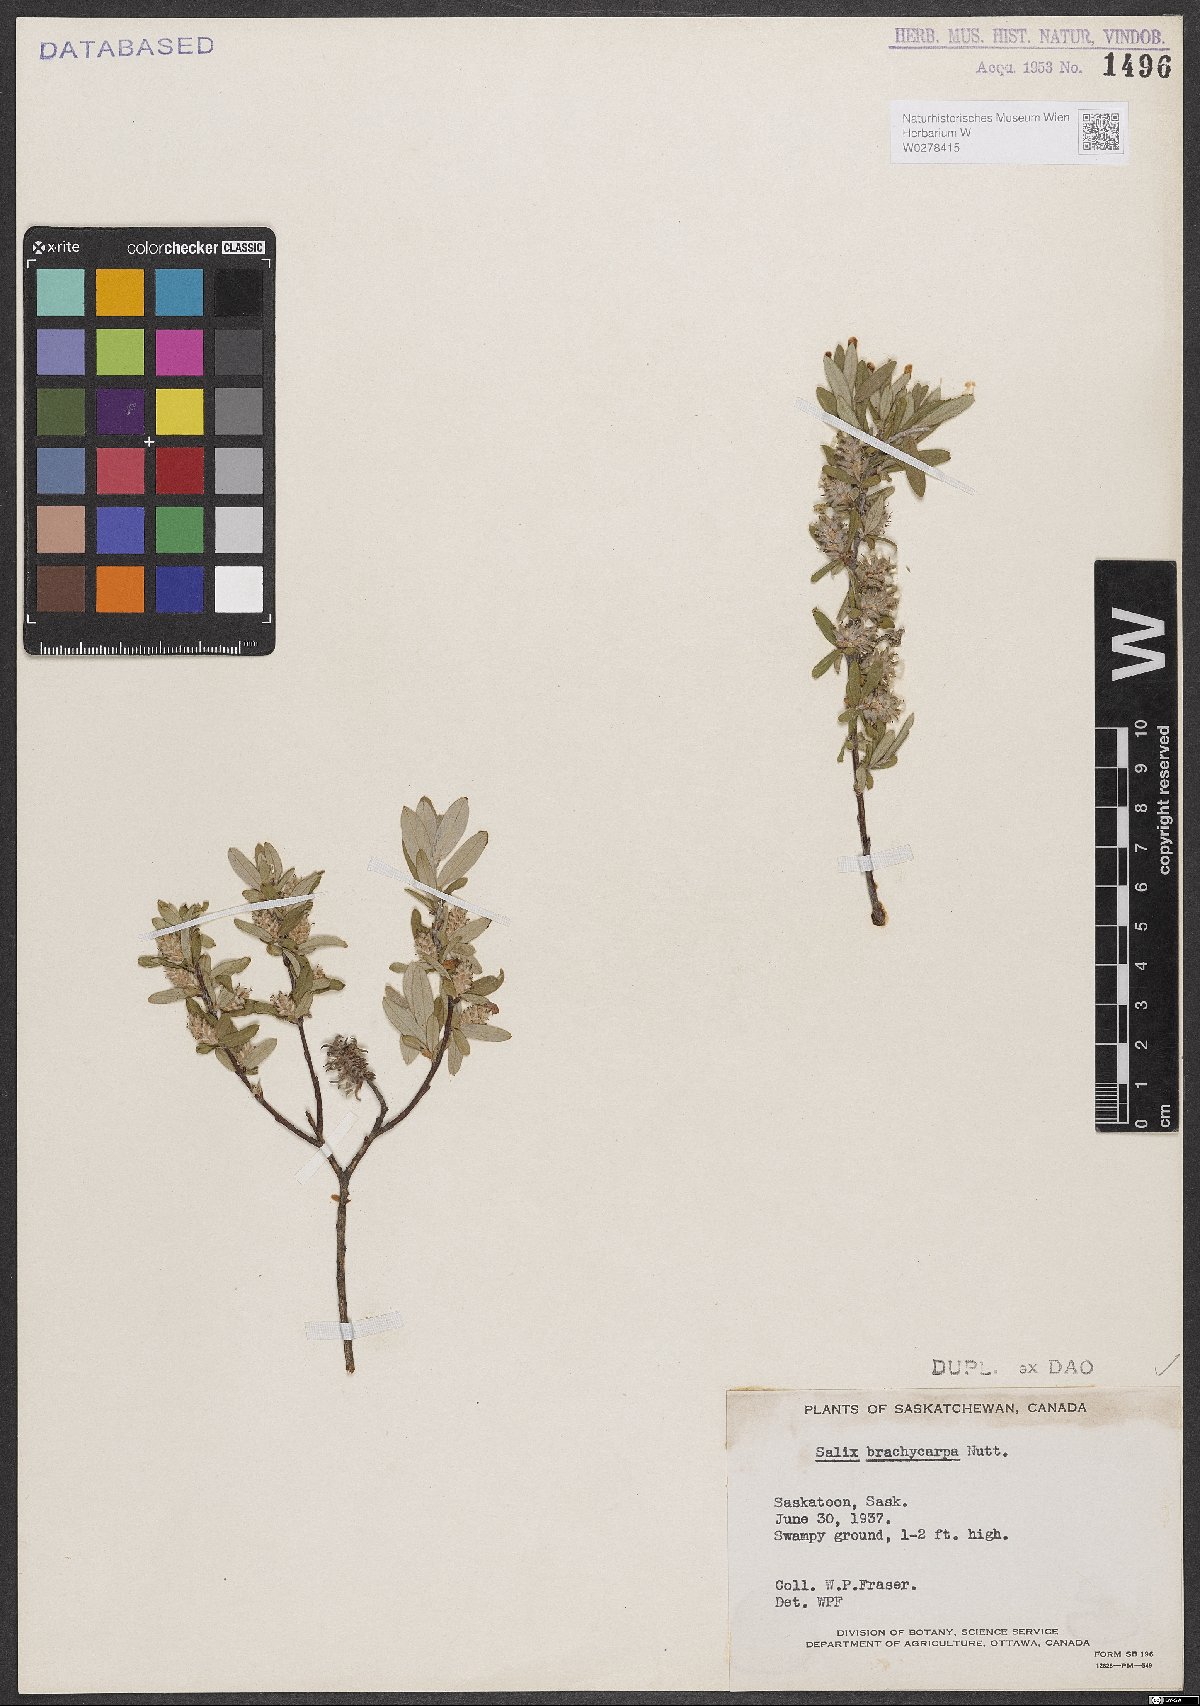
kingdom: Plantae
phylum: Tracheophyta
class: Magnoliopsida
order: Malpighiales
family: Salicaceae
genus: Salix
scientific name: Salix brachycarpa
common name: Barren-ground willow
